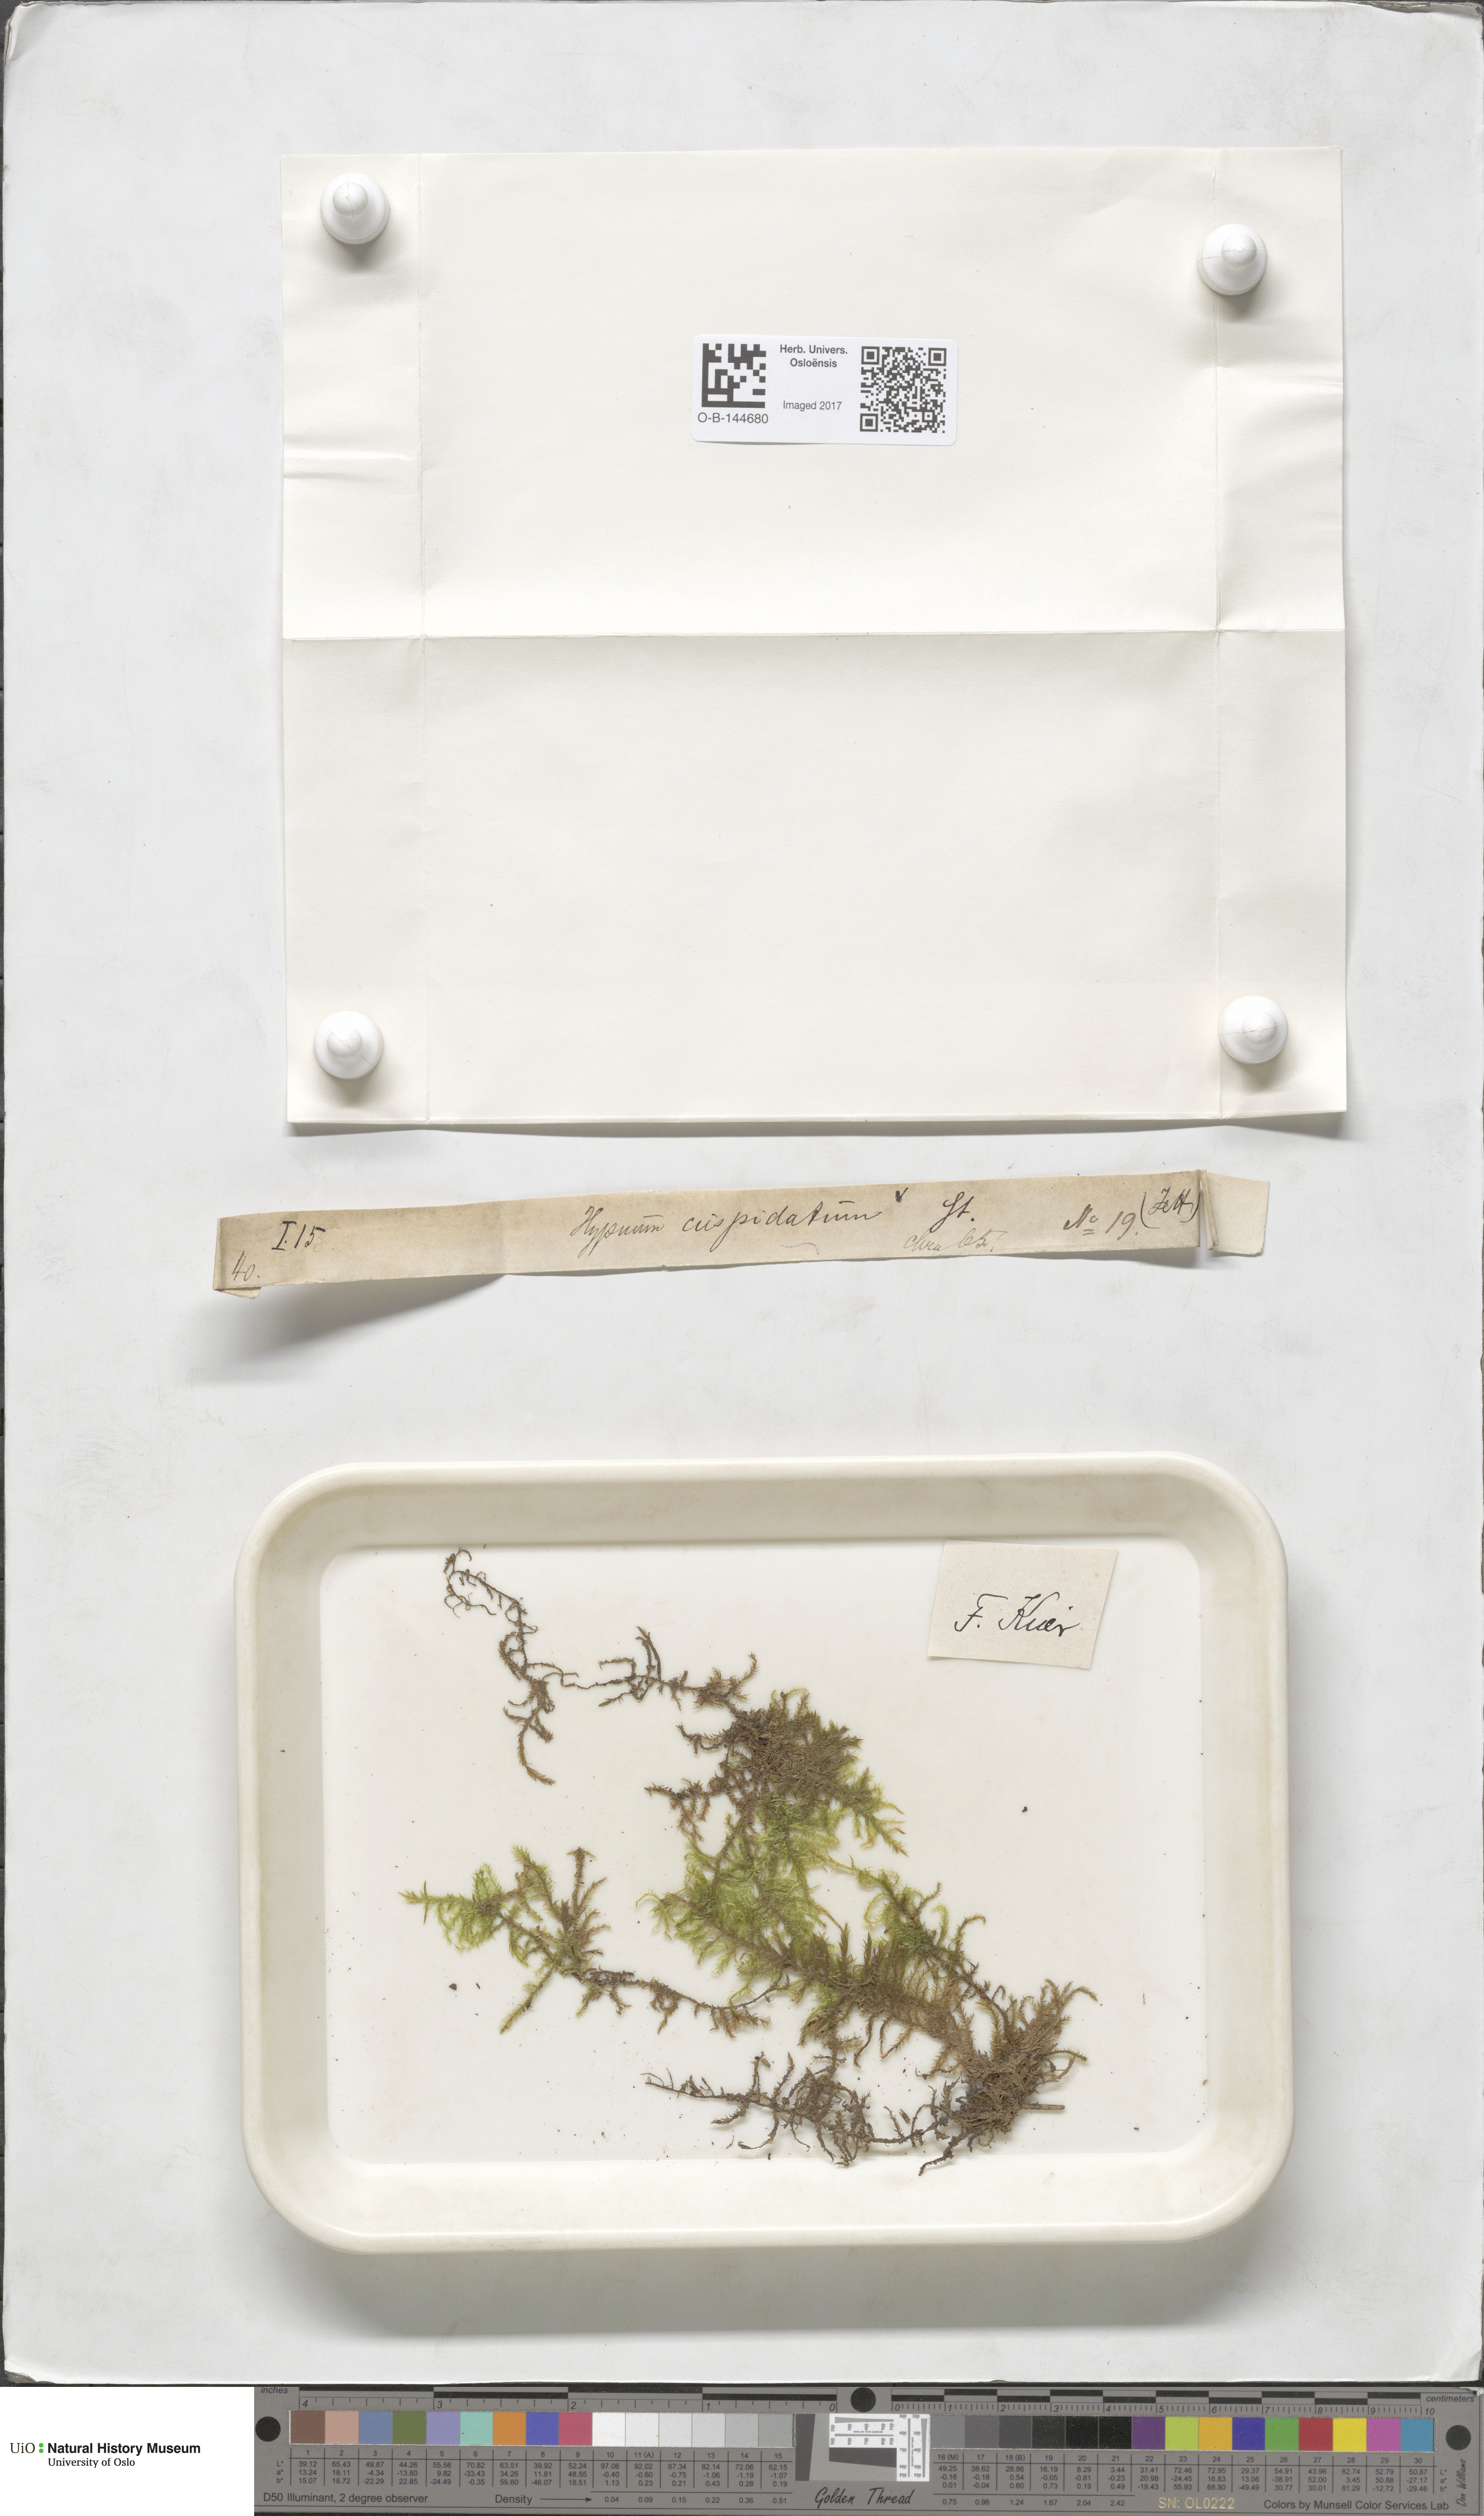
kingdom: Plantae
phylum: Bryophyta
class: Bryopsida
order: Hypnales
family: Pylaisiaceae
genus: Calliergonella
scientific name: Calliergonella cuspidata
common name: Common large wetland moss
